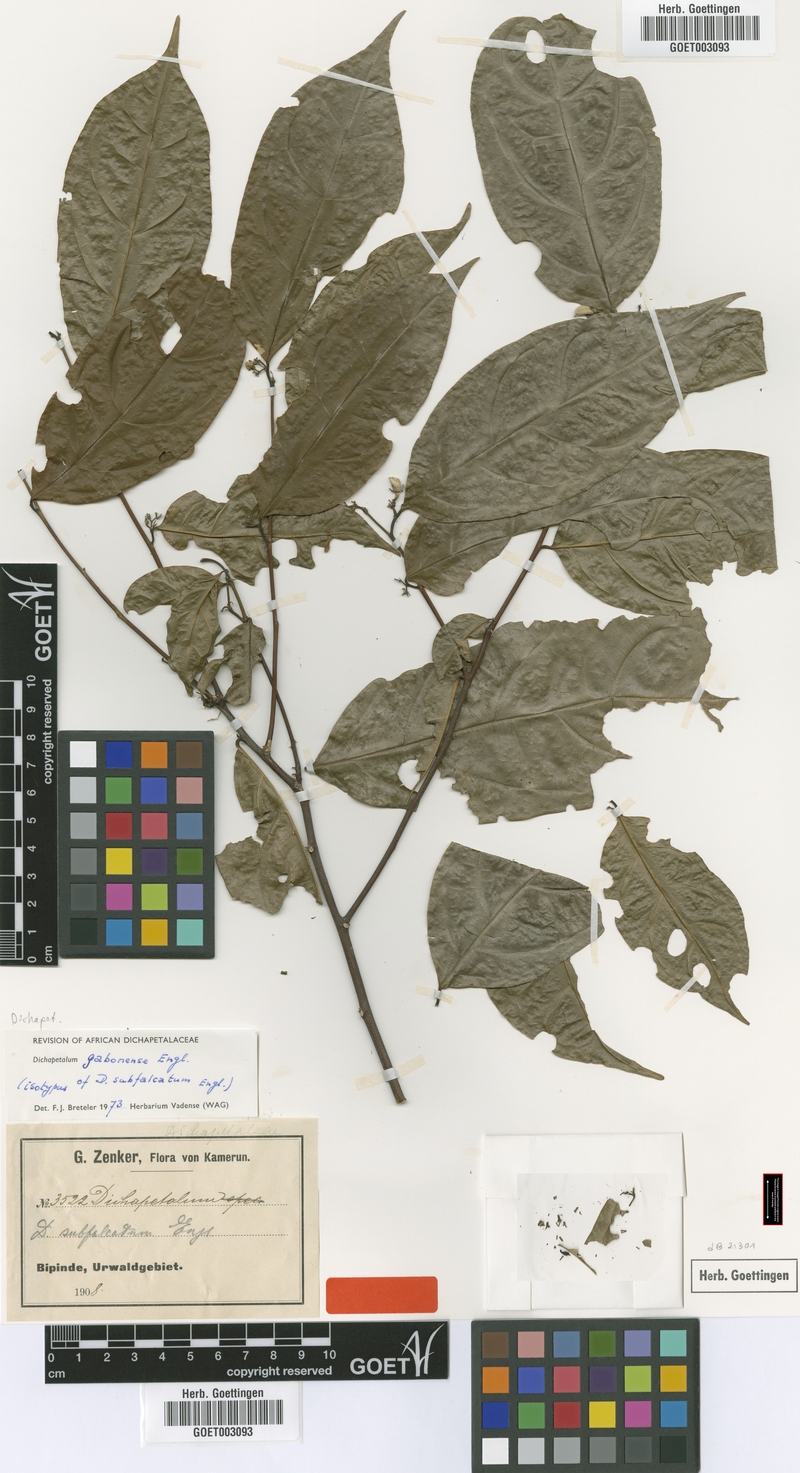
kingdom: Plantae
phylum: Tracheophyta
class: Magnoliopsida
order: Malpighiales
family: Dichapetalaceae
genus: Dichapetalum
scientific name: Dichapetalum gabonense
